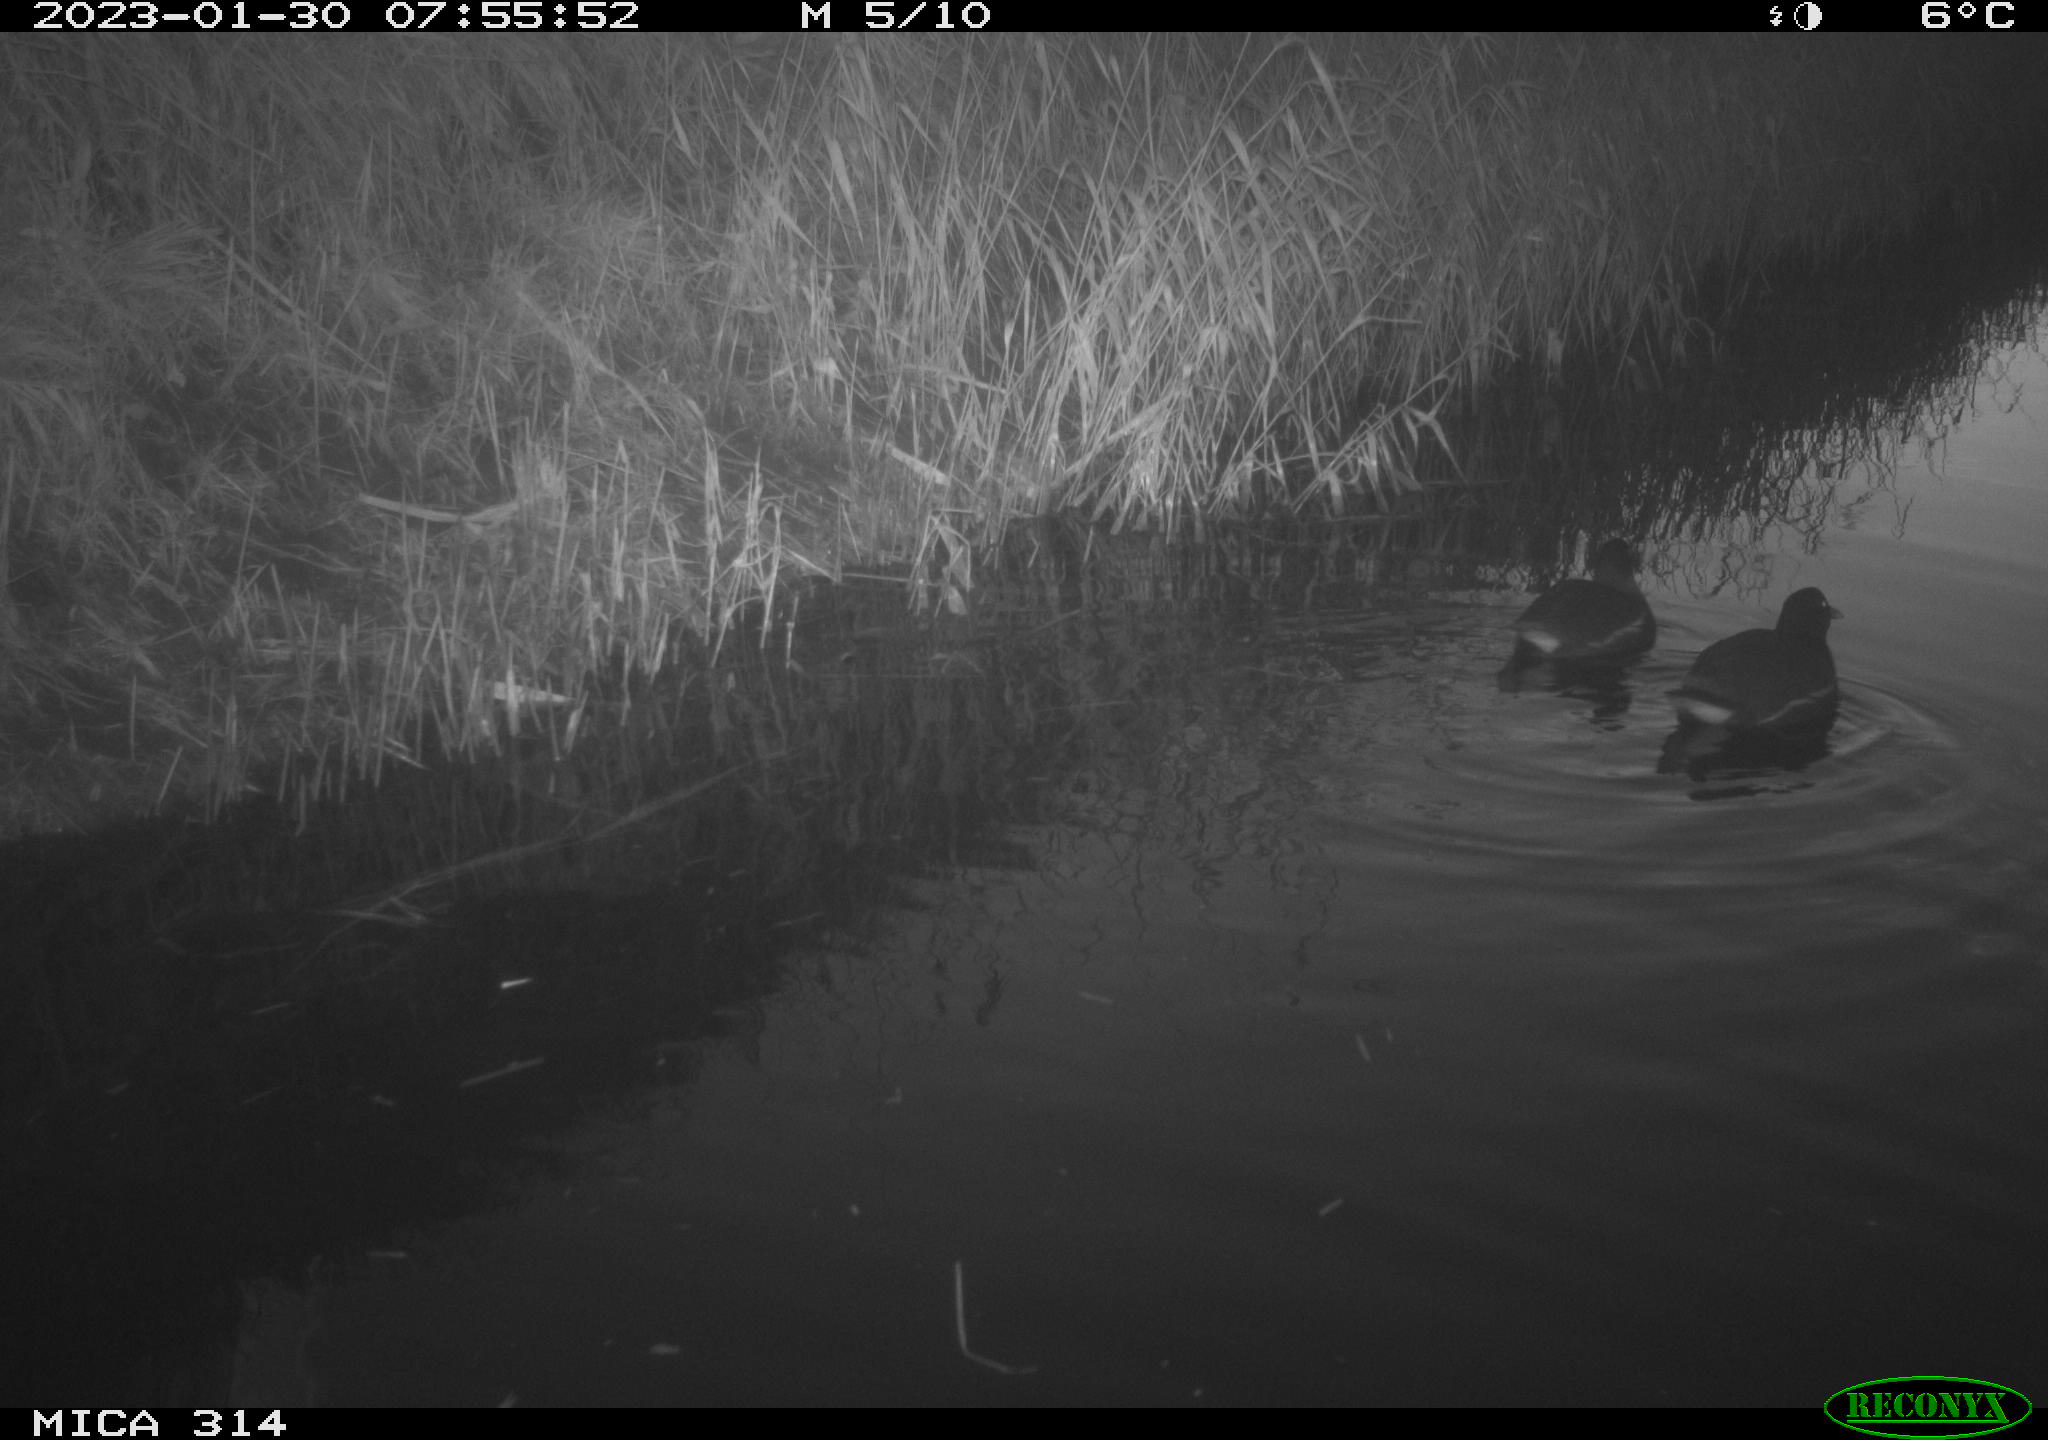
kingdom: Animalia
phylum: Chordata
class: Aves
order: Gruiformes
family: Rallidae
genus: Gallinula
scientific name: Gallinula chloropus
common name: Common moorhen
